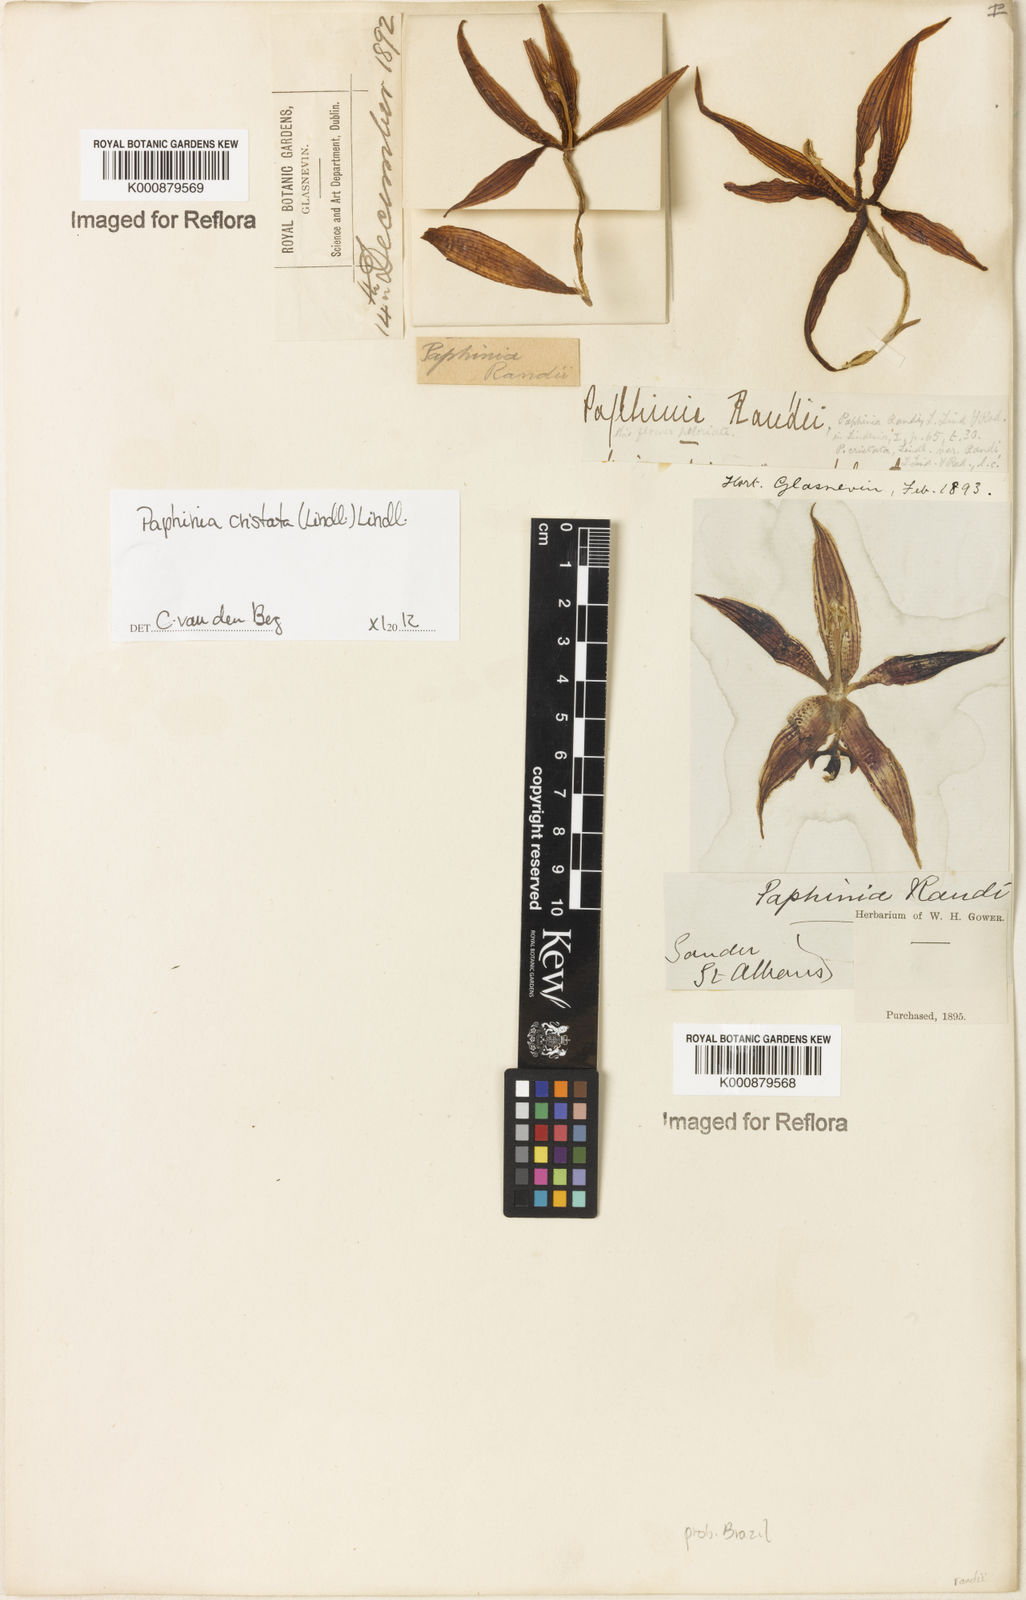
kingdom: Plantae
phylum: Tracheophyta
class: Liliopsida
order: Asparagales
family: Orchidaceae
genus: Paphinia
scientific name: Paphinia cristata
